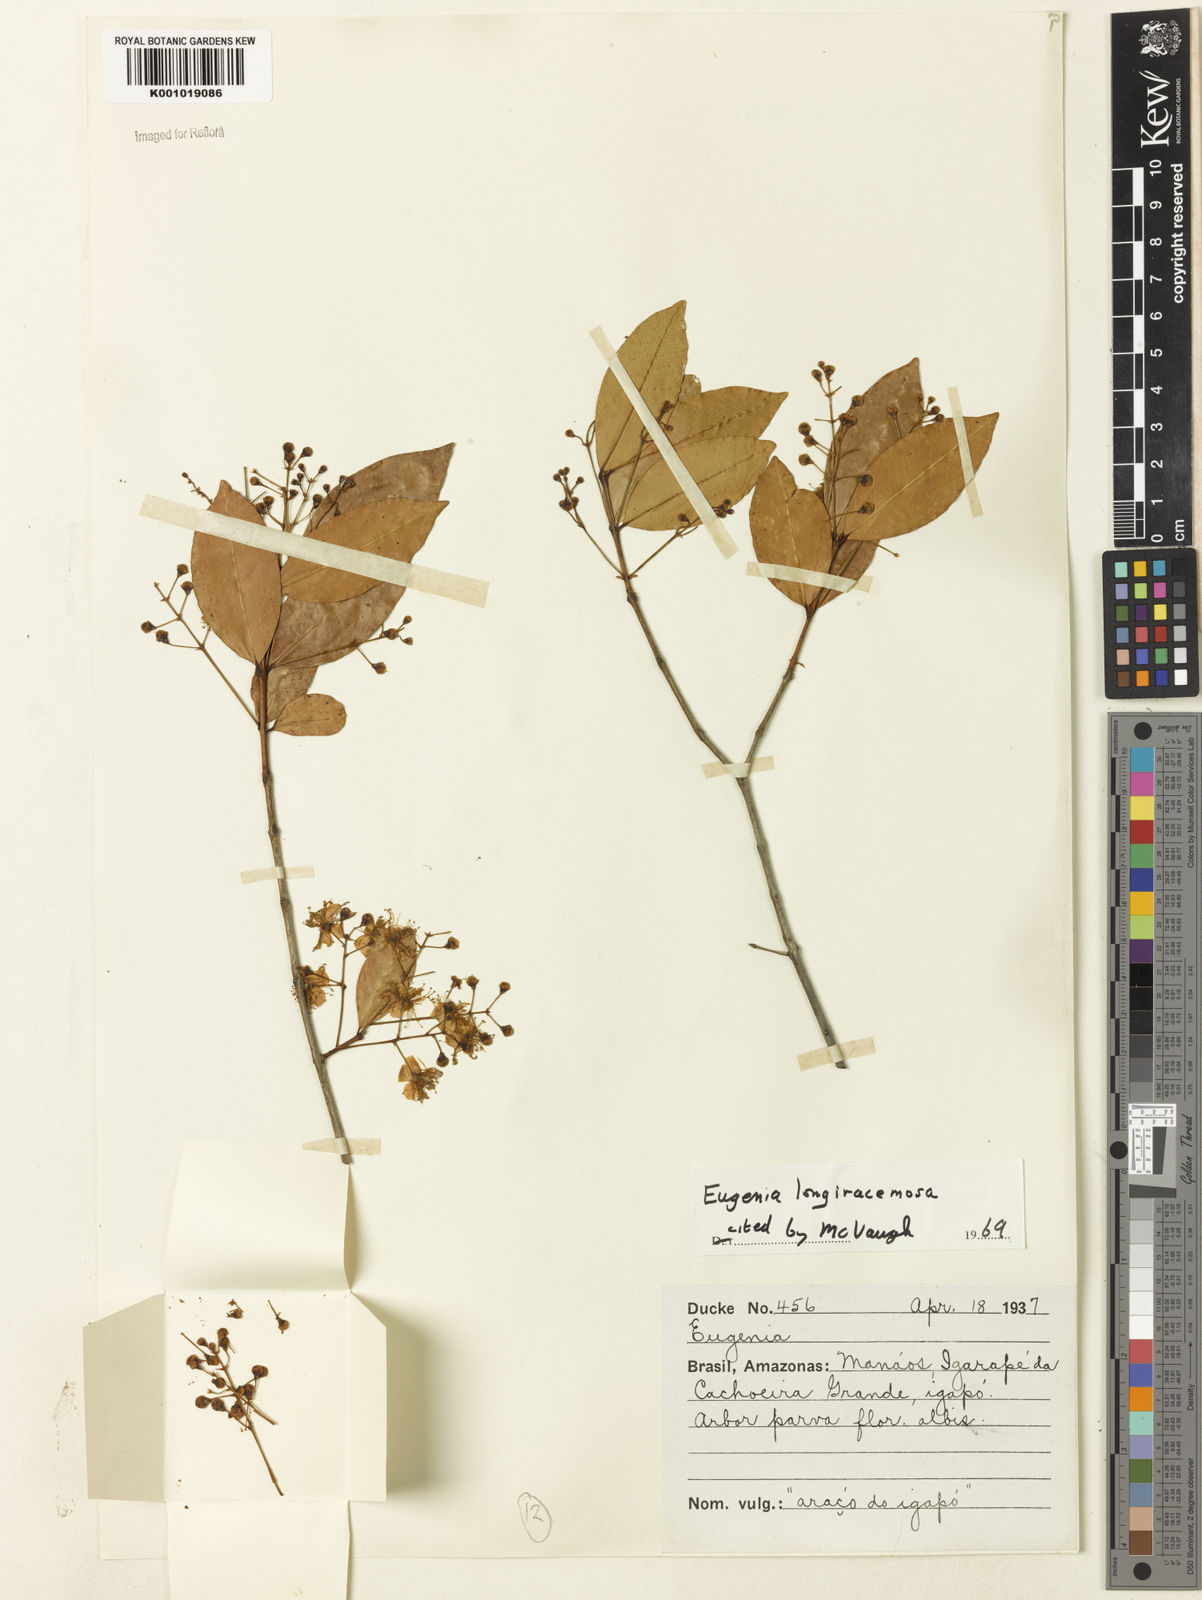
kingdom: Plantae
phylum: Tracheophyta
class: Magnoliopsida
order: Myrtales
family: Myrtaceae
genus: Eugenia
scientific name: Eugenia longiracemosa
